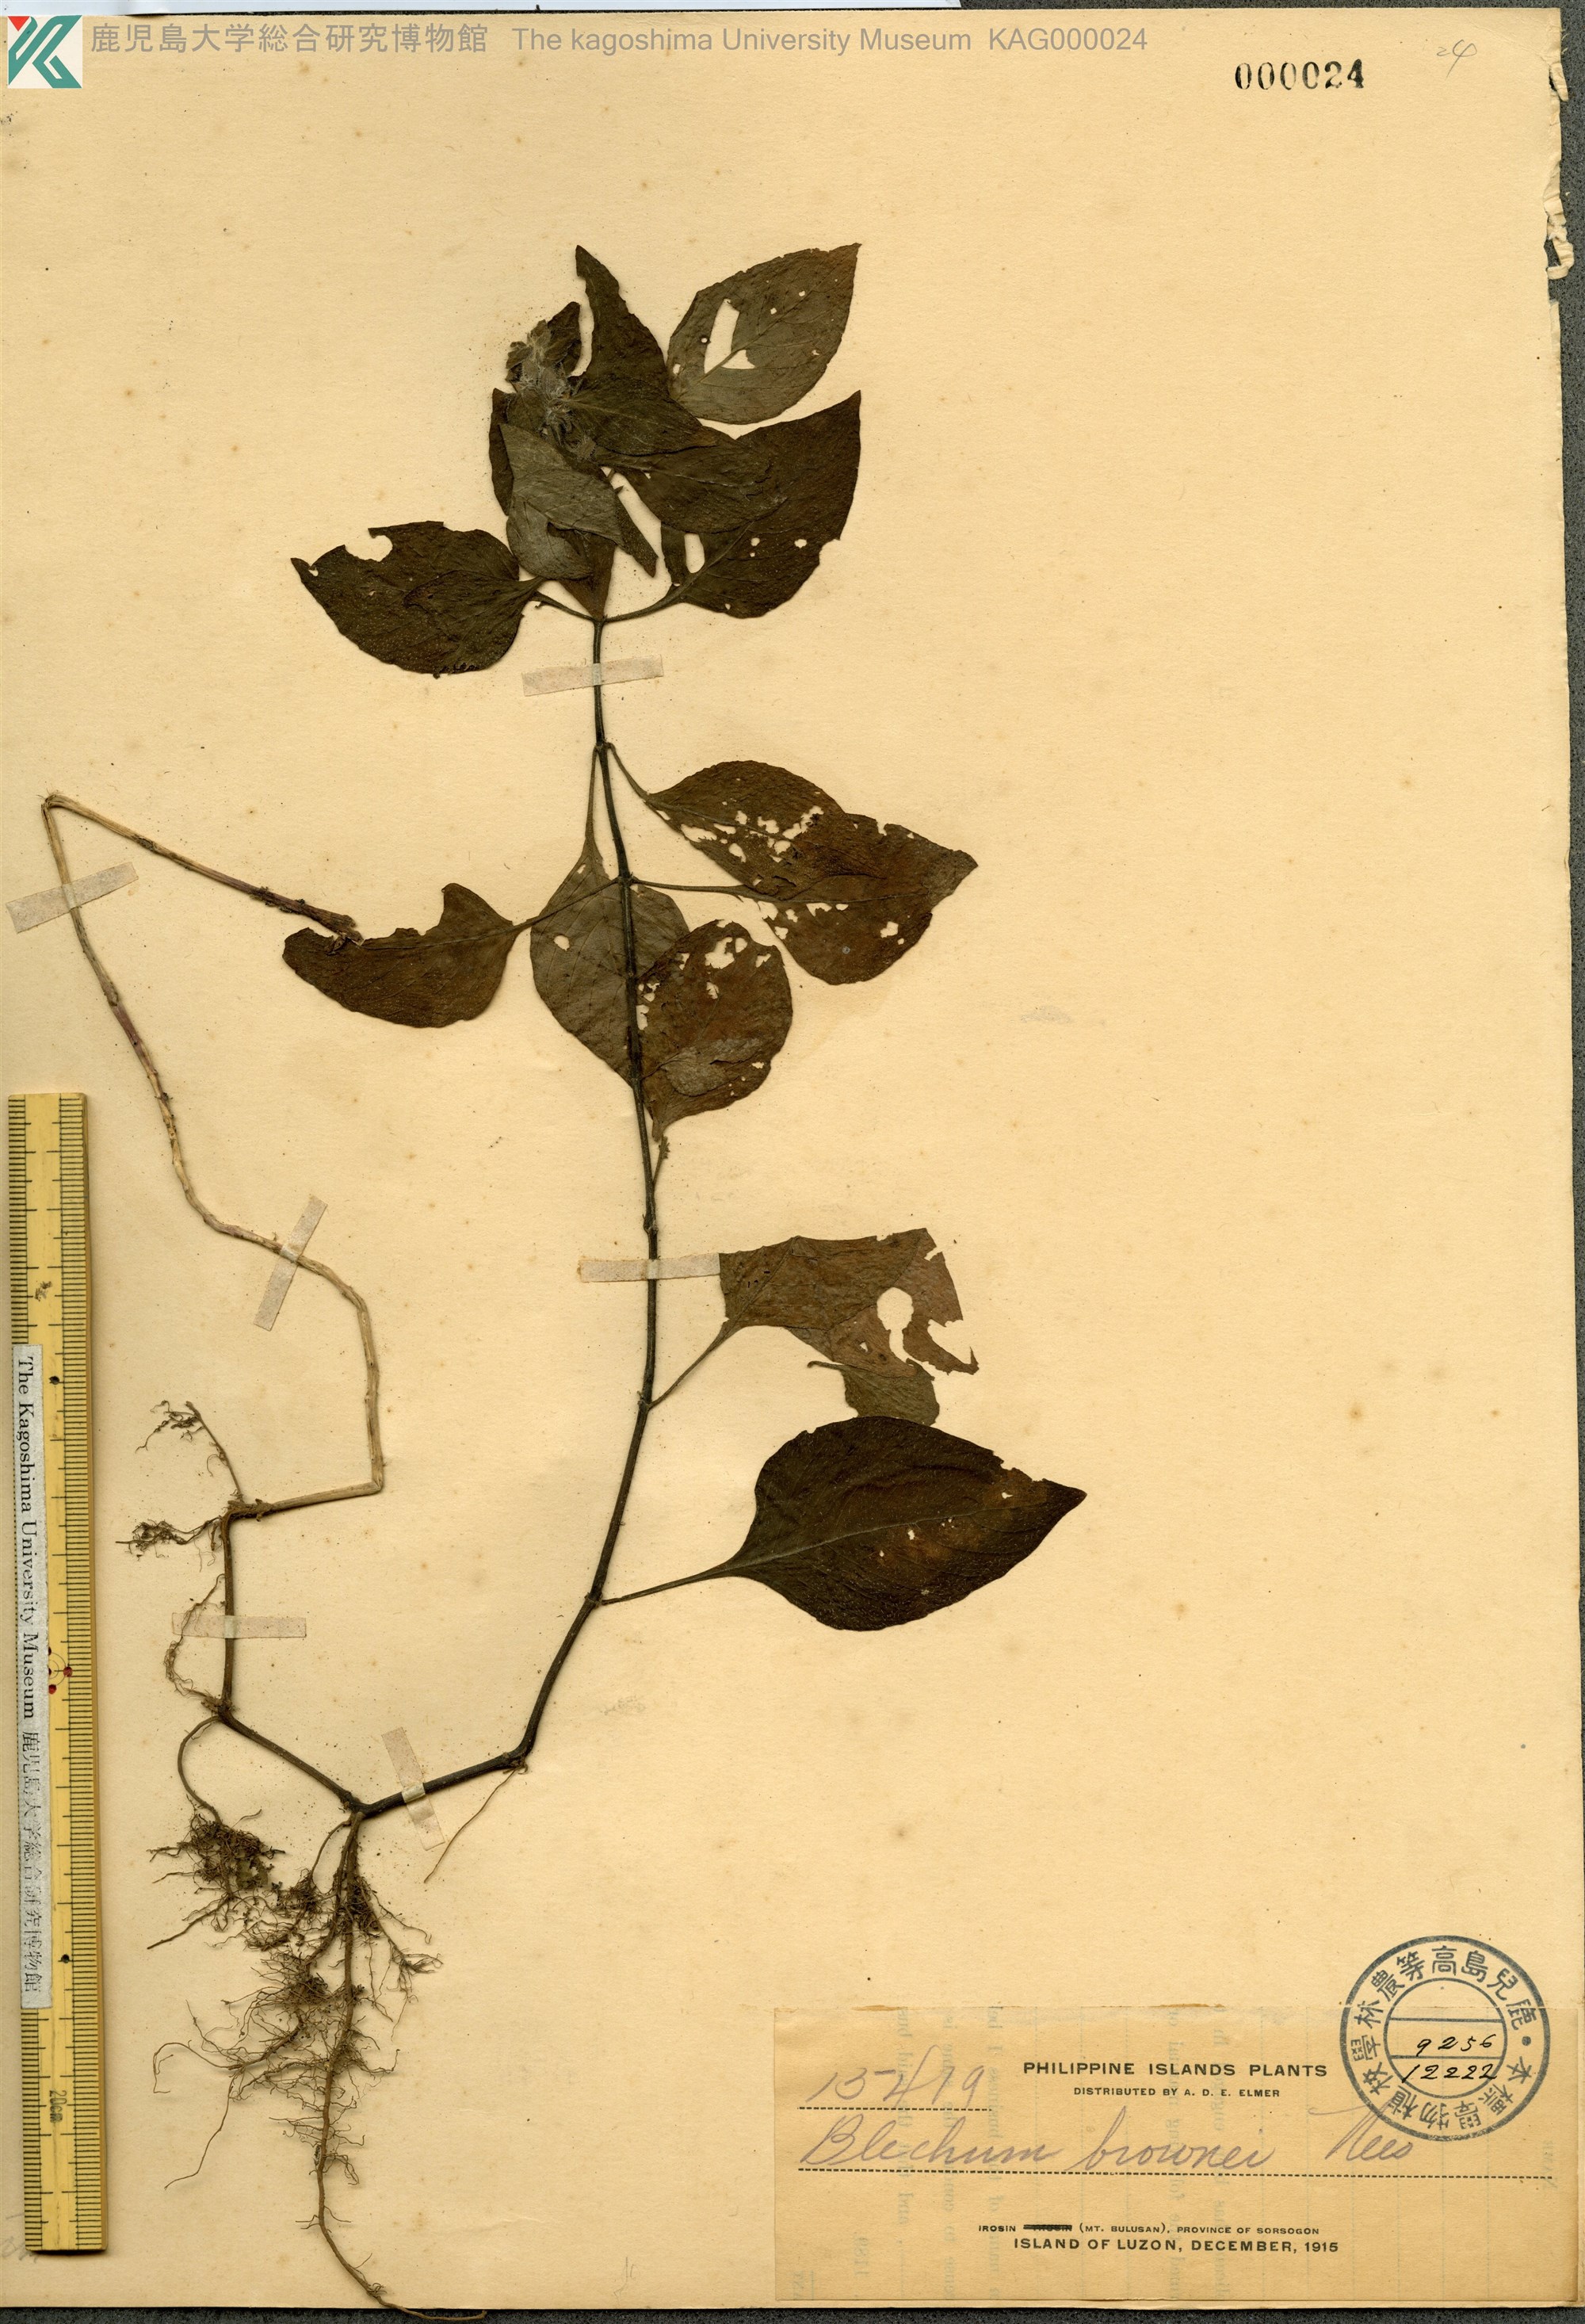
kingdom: Plantae
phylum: Tracheophyta
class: Magnoliopsida
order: Lamiales
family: Acanthaceae
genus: Ruellia
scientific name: Ruellia blechum
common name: Browne's blechum
